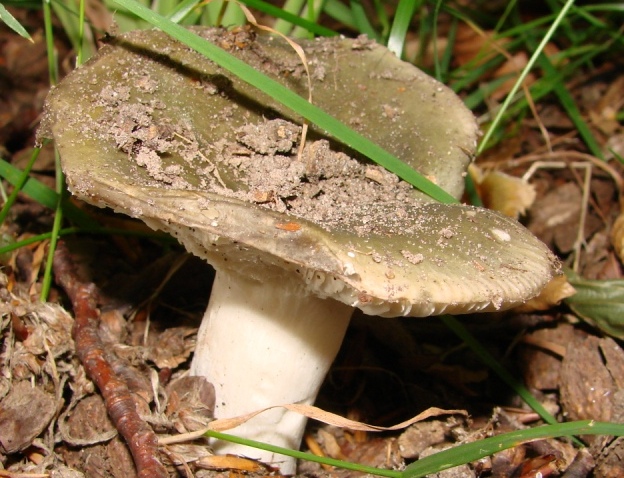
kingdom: Fungi
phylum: Basidiomycota
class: Agaricomycetes
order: Russulales
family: Russulaceae
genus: Russula
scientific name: Russula
